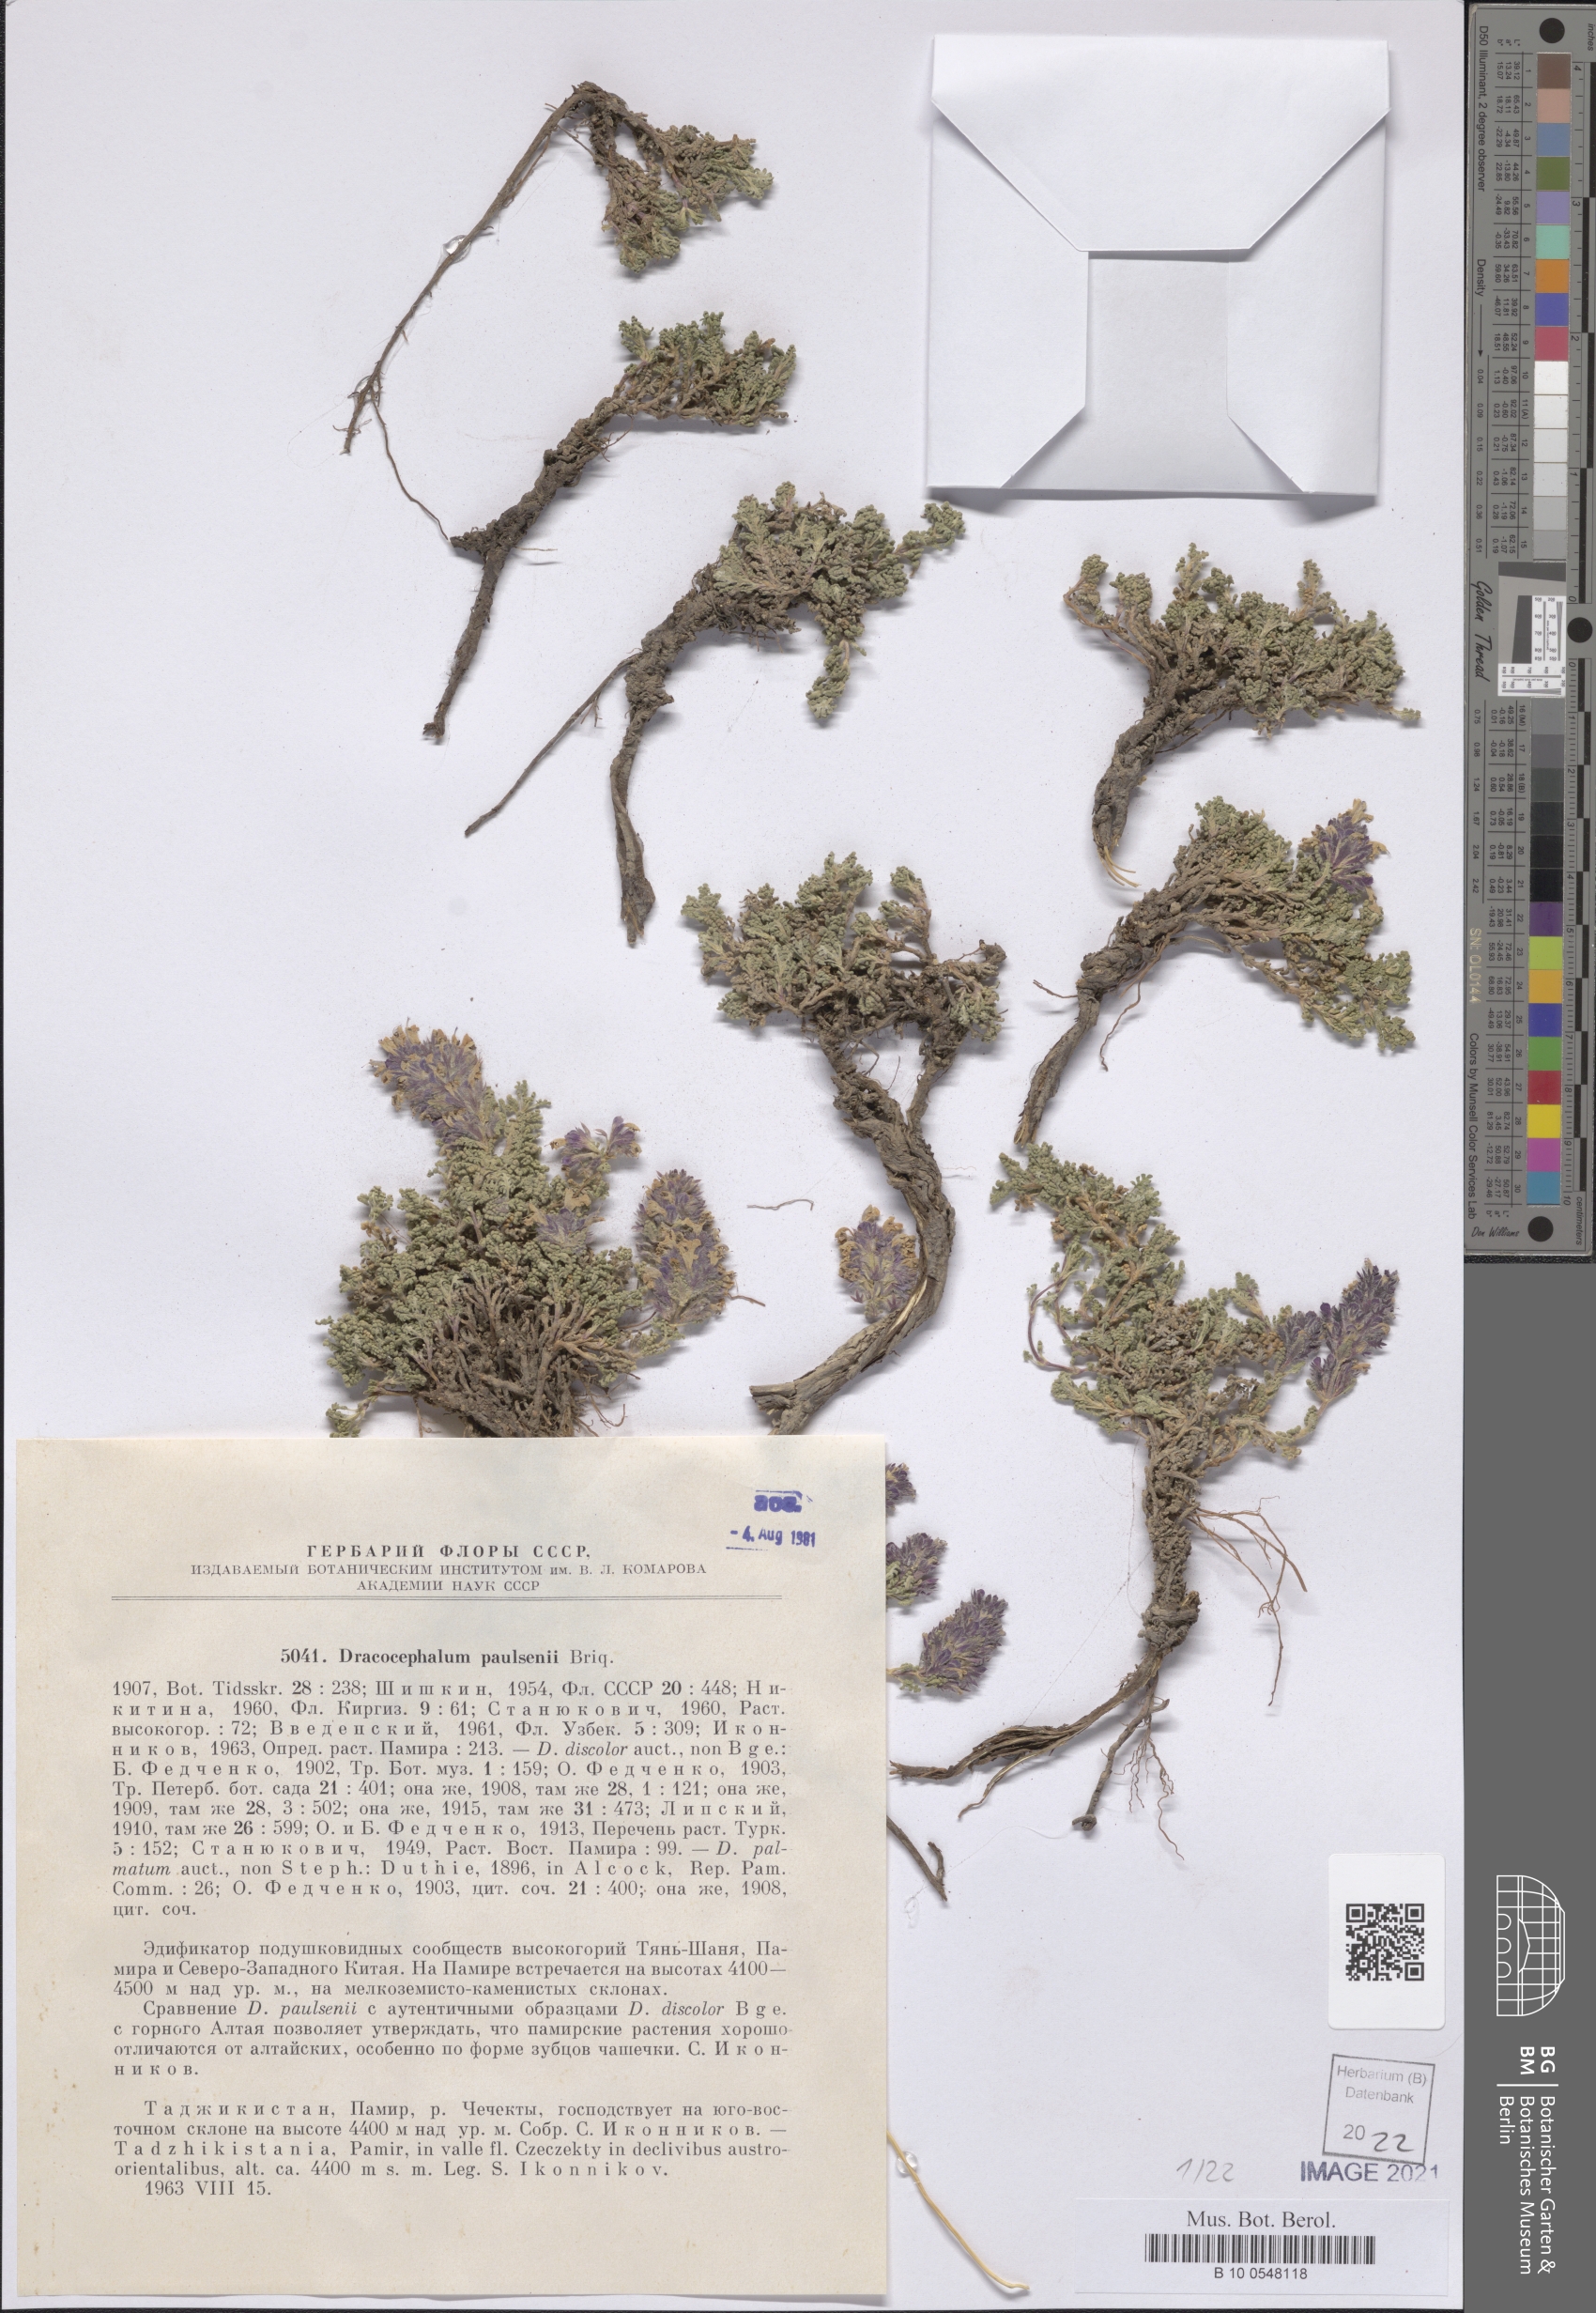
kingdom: Plantae
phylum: Tracheophyta
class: Magnoliopsida
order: Lamiales
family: Lamiaceae
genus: Dracocephalum
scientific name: Dracocephalum paulsenii
